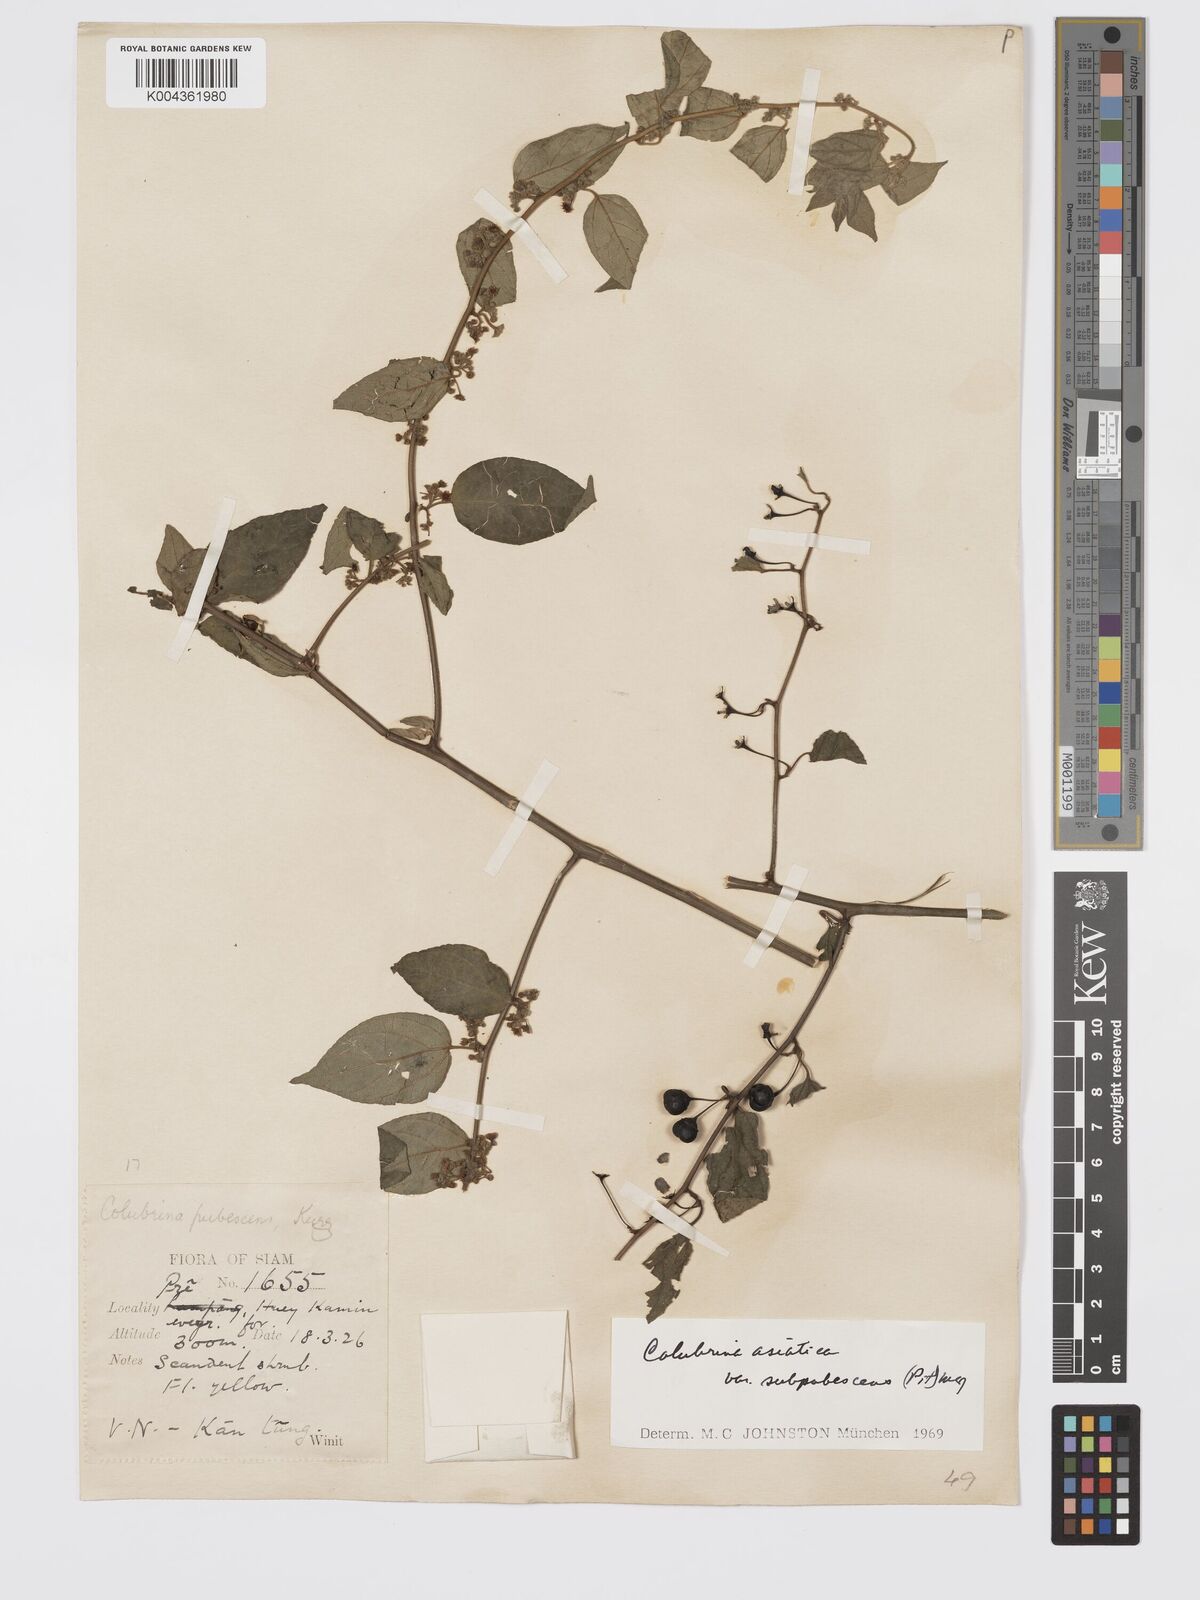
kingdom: Plantae
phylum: Tracheophyta
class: Magnoliopsida
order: Rosales
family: Rhamnaceae
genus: Colubrina
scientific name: Colubrina javanica
